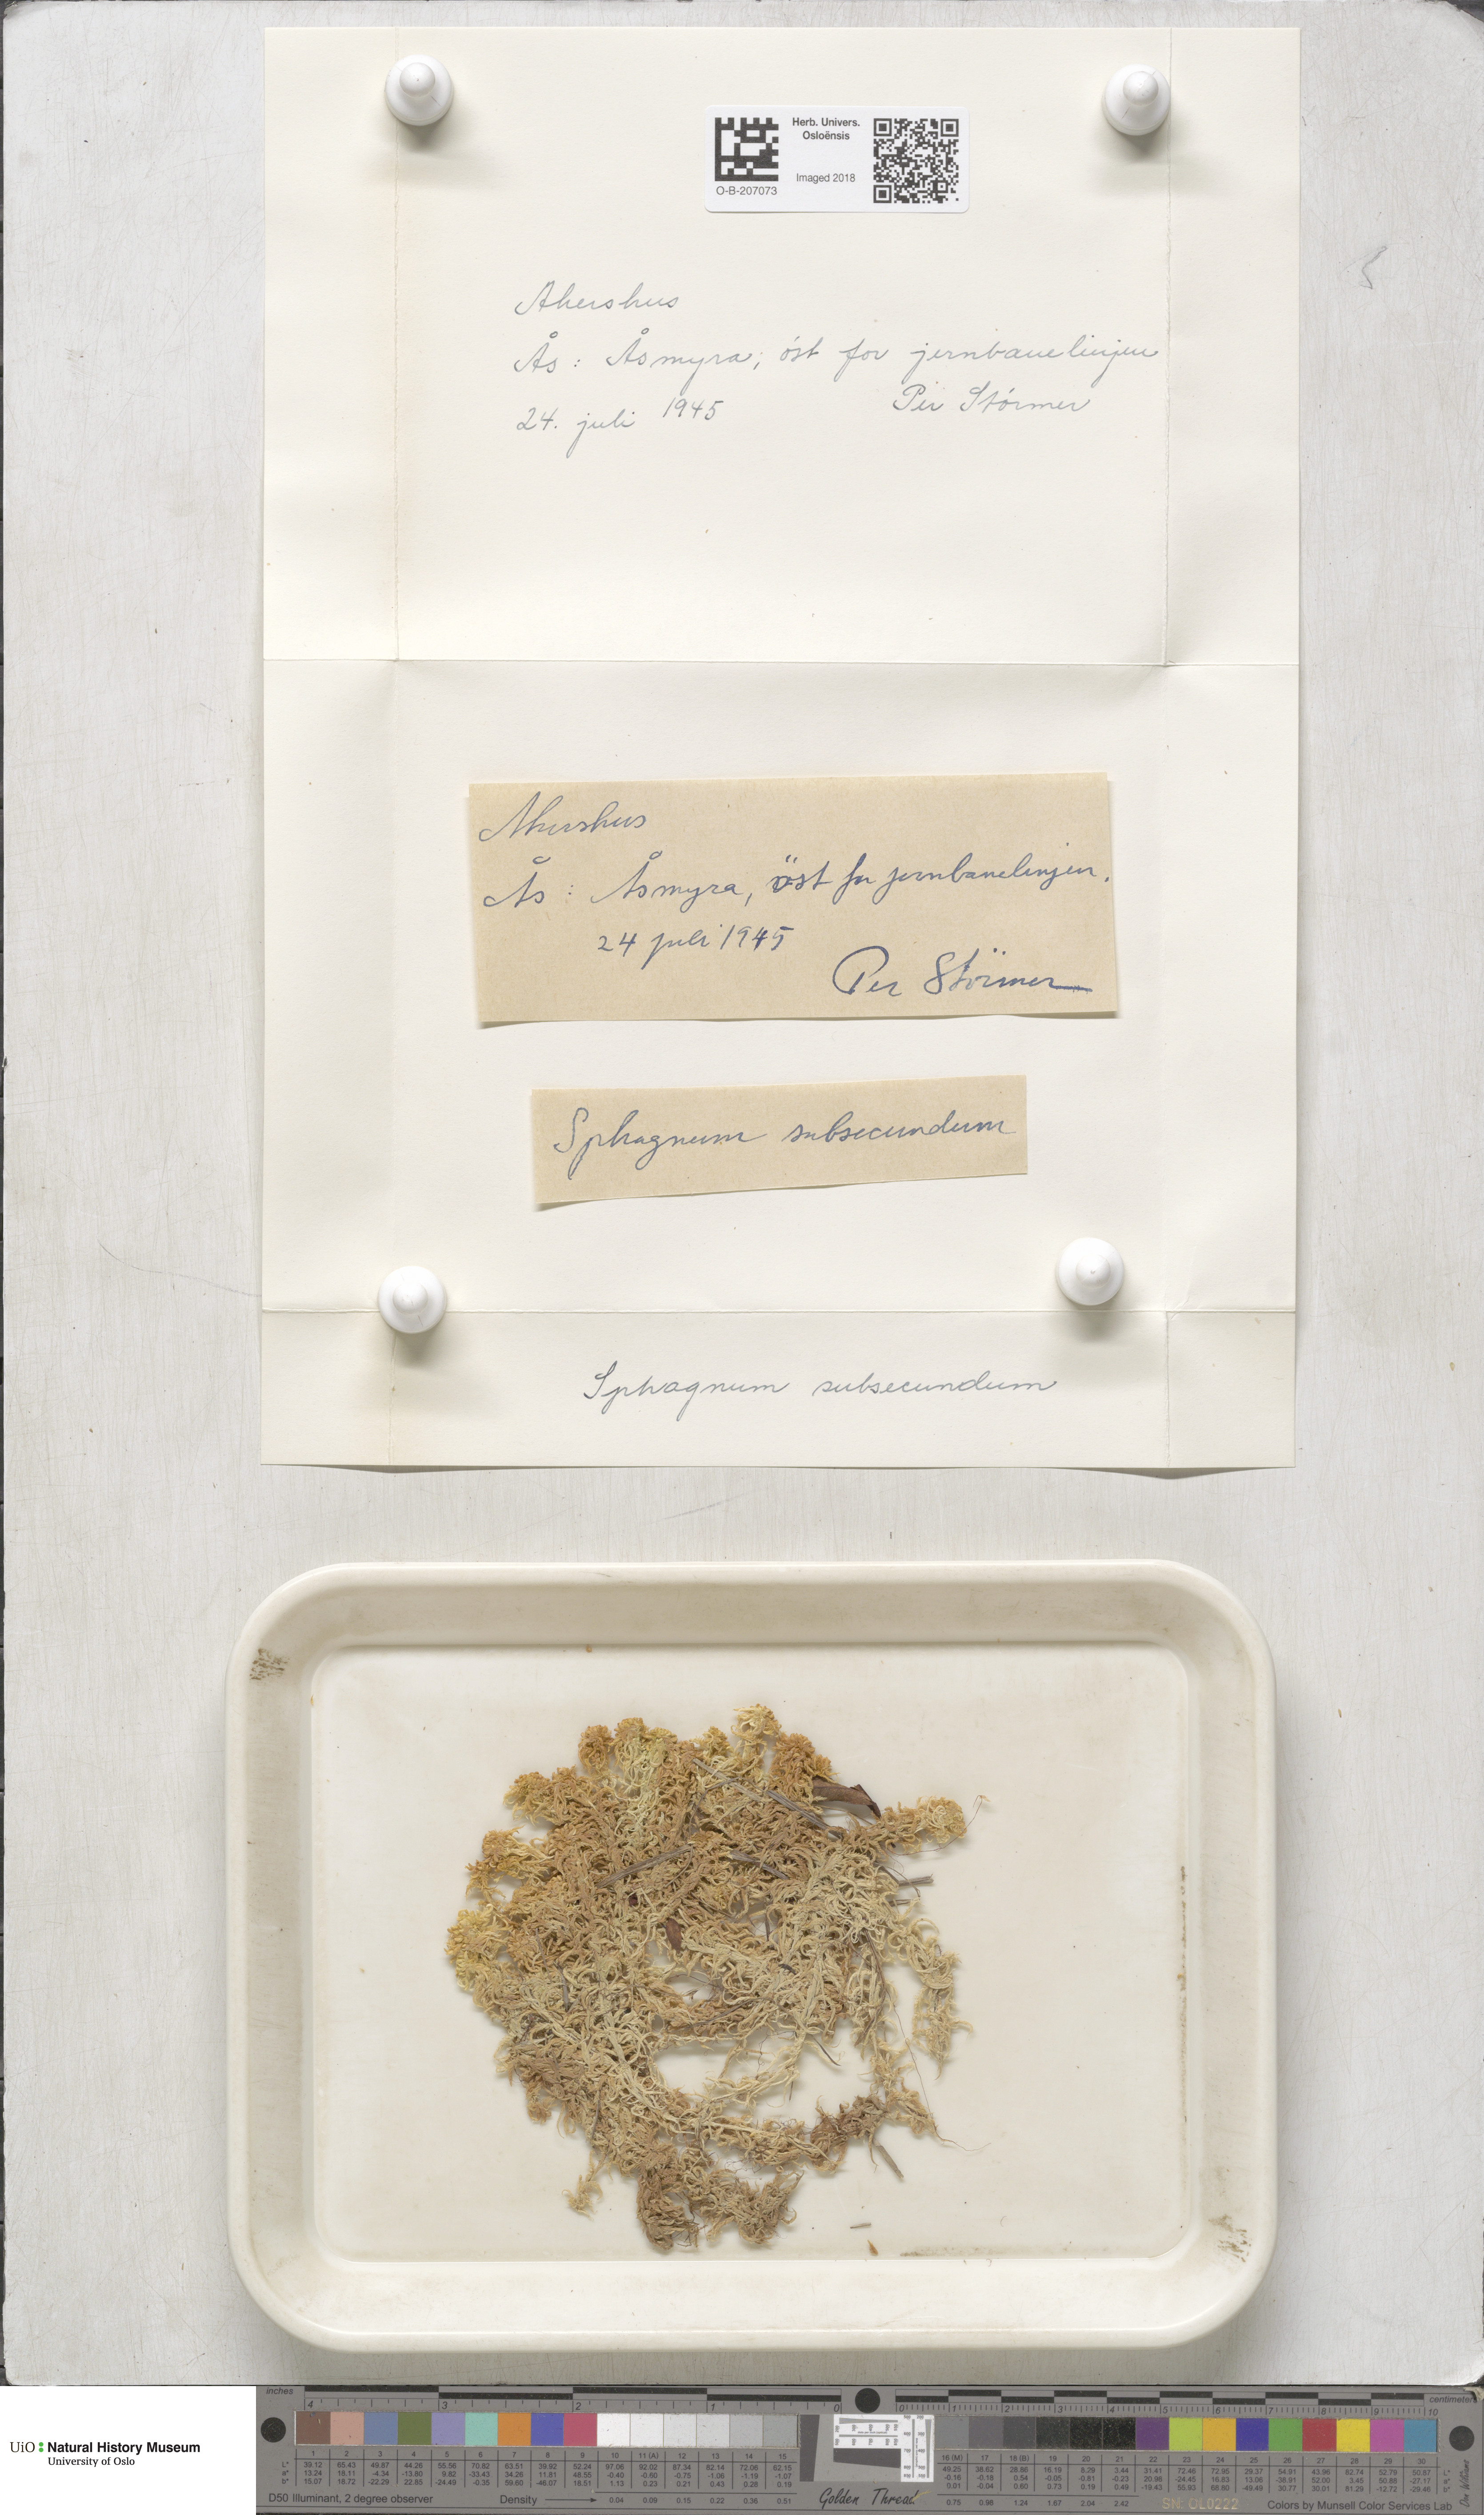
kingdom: Plantae
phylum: Bryophyta
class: Sphagnopsida
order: Sphagnales
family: Sphagnaceae
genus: Sphagnum
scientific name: Sphagnum subsecundum
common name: Orange peat moss
